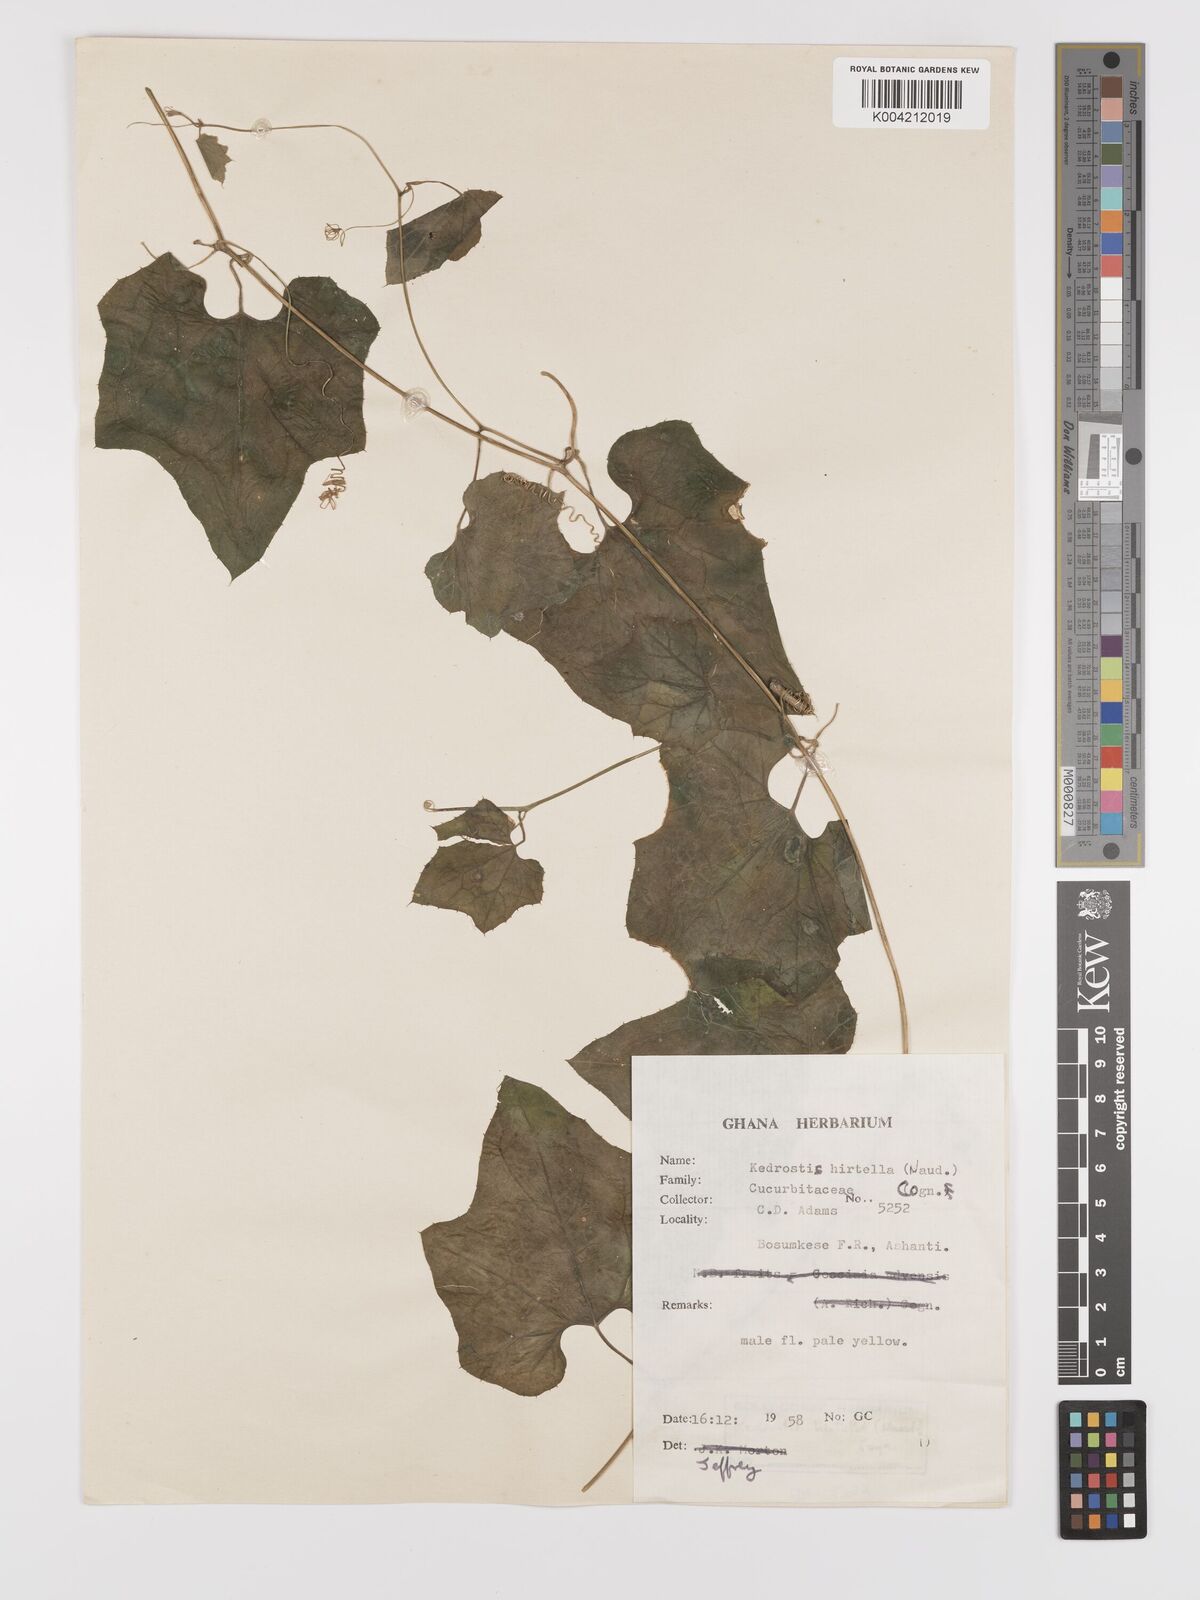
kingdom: Plantae
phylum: Tracheophyta
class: Magnoliopsida
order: Cucurbitales
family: Cucurbitaceae
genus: Kedrostis
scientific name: Kedrostis hirtella
